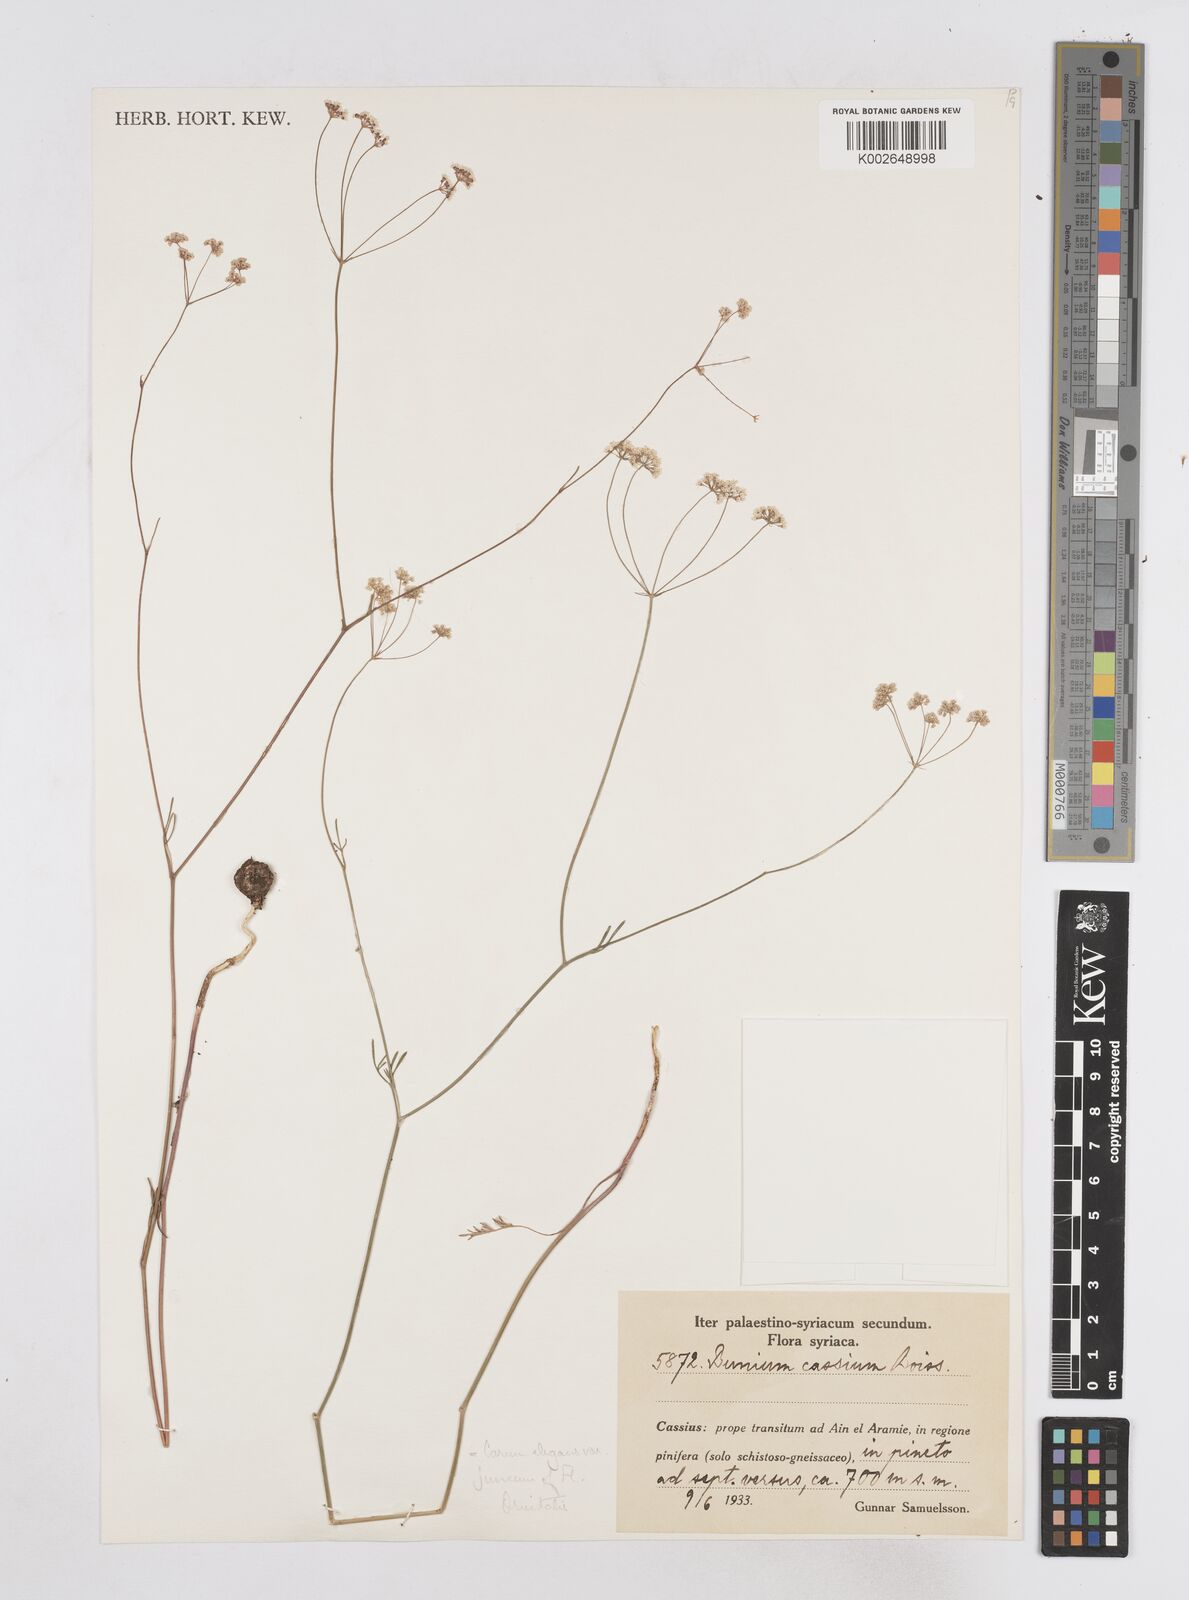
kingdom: Plantae
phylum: Tracheophyta
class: Magnoliopsida
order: Apiales
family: Apiaceae
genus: Elwendia
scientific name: Elwendia cabulica
